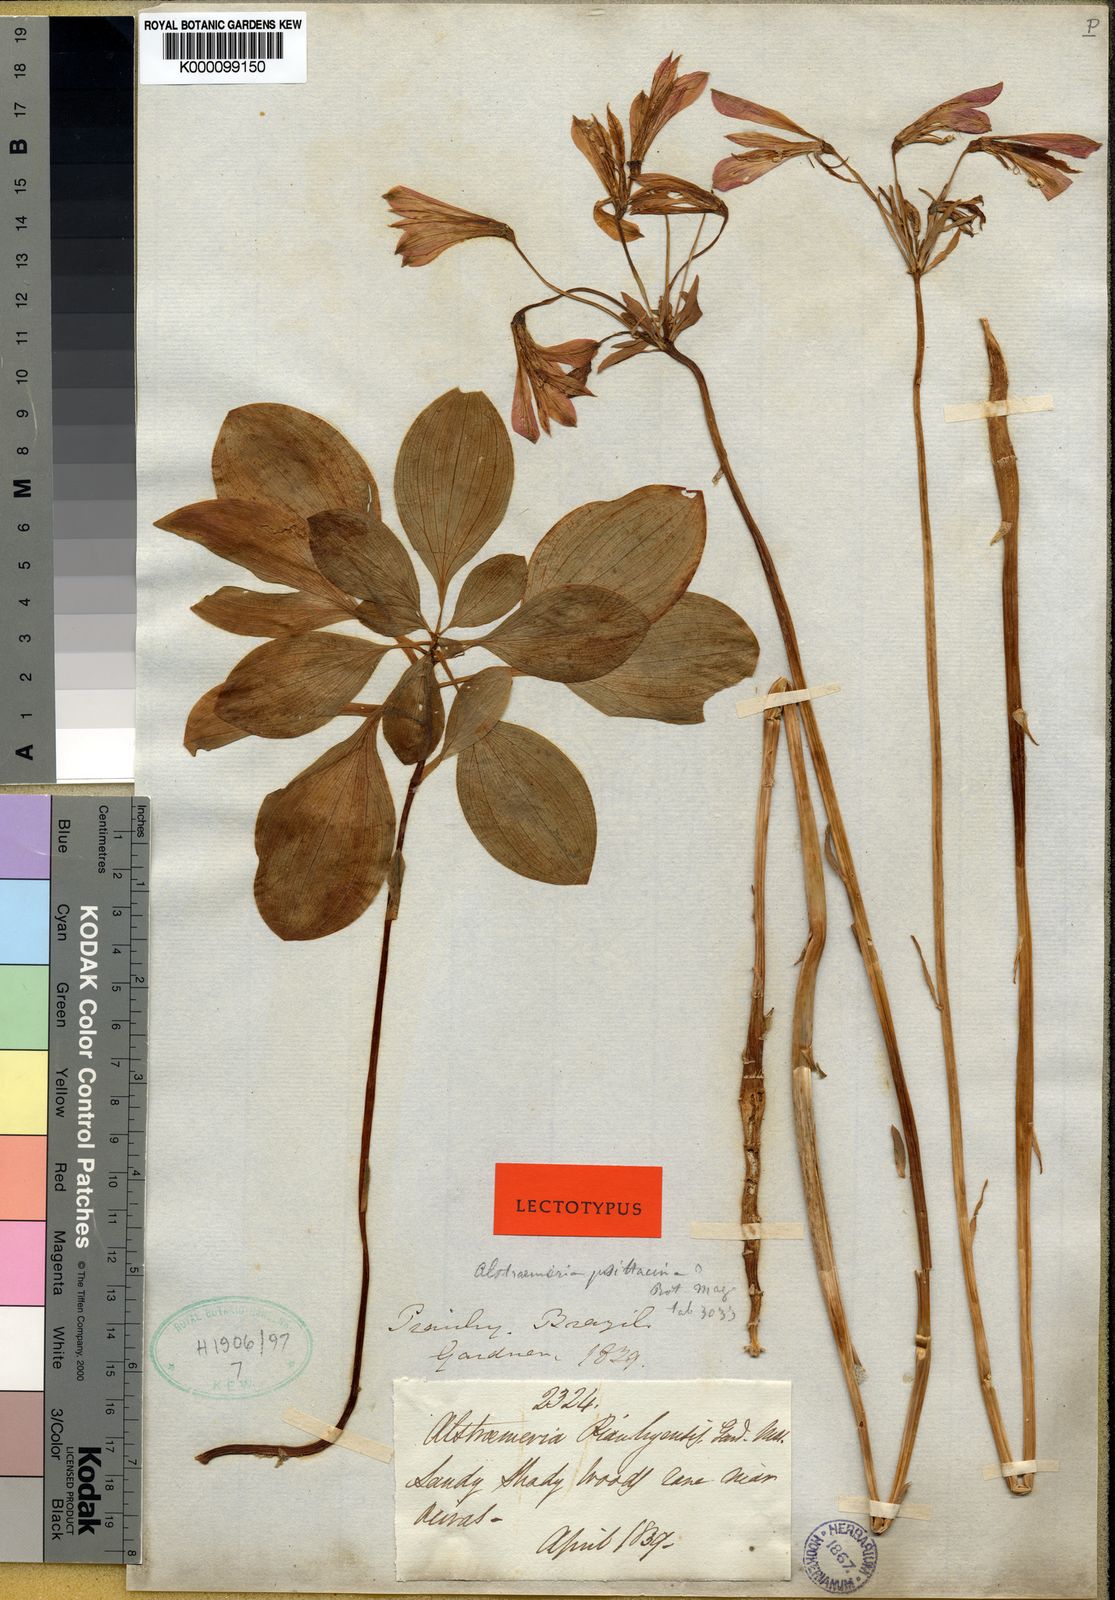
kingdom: Plantae
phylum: Tracheophyta
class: Liliopsida
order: Liliales
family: Alstroemeriaceae
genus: Alstroemeria
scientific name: Alstroemeria piauhyensis
